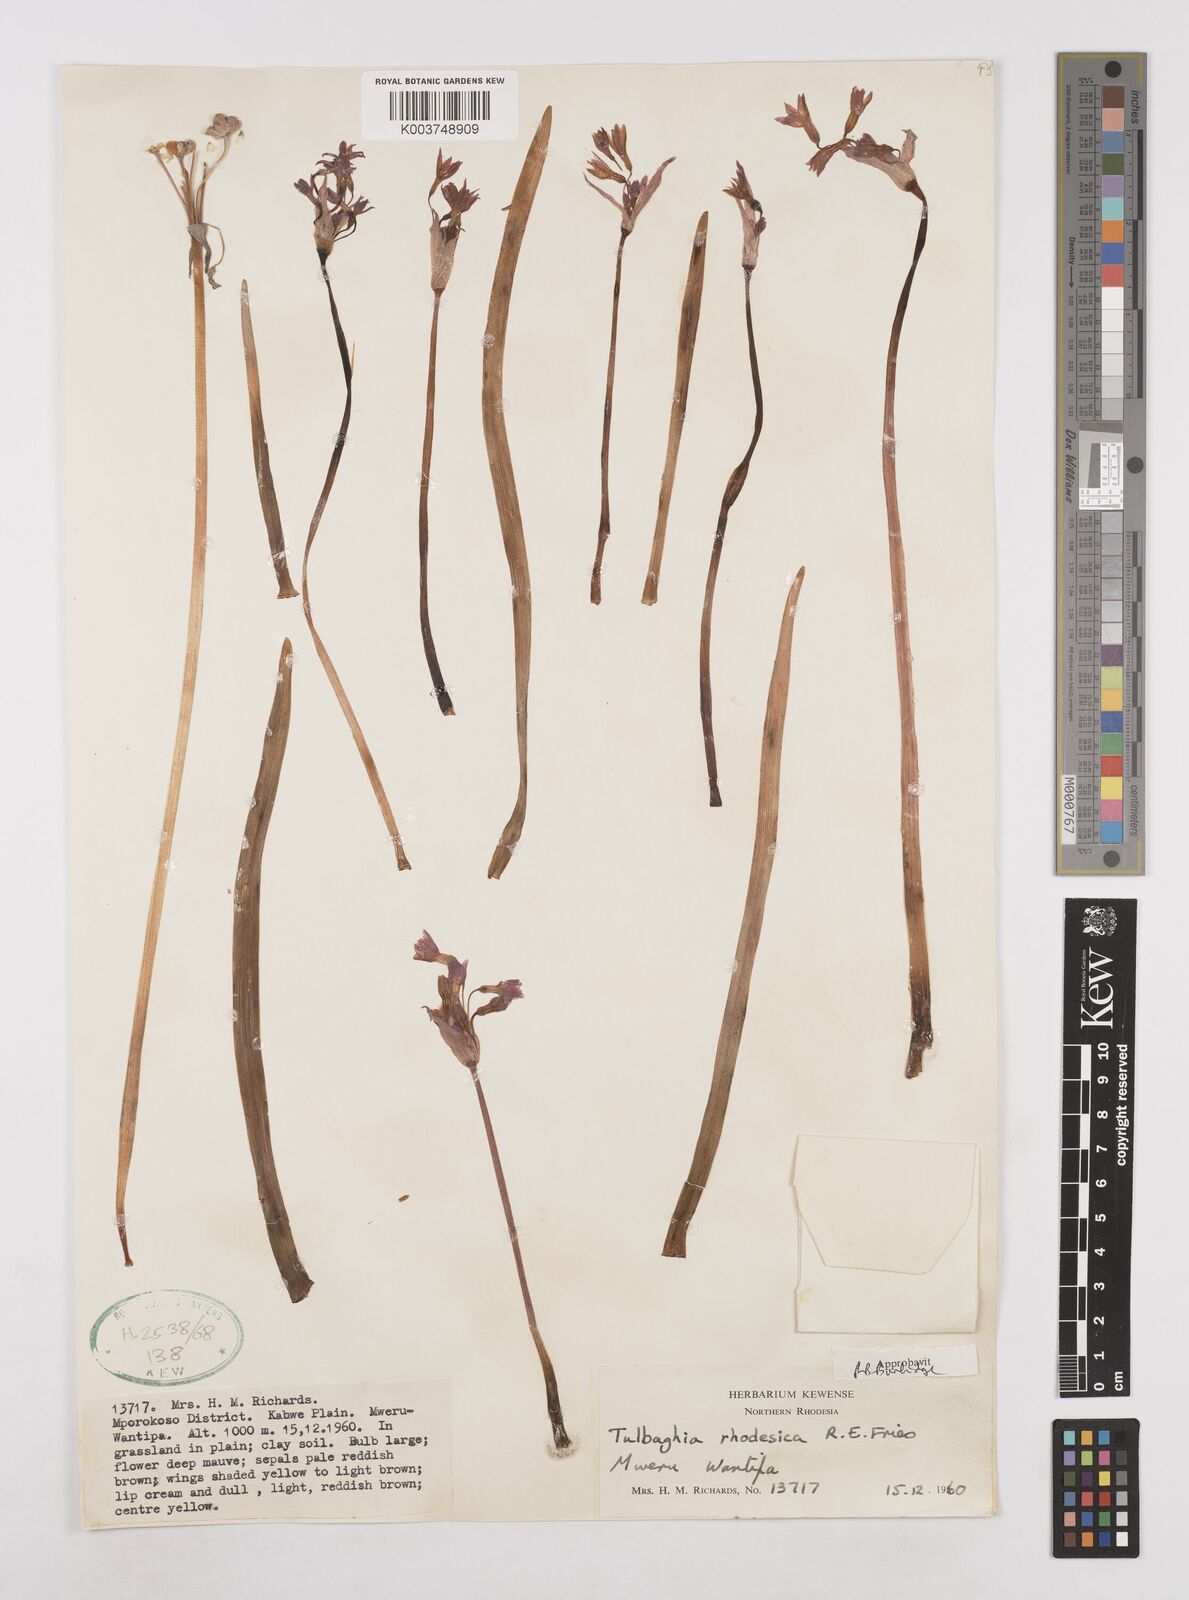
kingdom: Plantae
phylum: Tracheophyta
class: Liliopsida
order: Asparagales
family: Amaryllidaceae
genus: Tulbaghia
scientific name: Tulbaghia rhodesica
